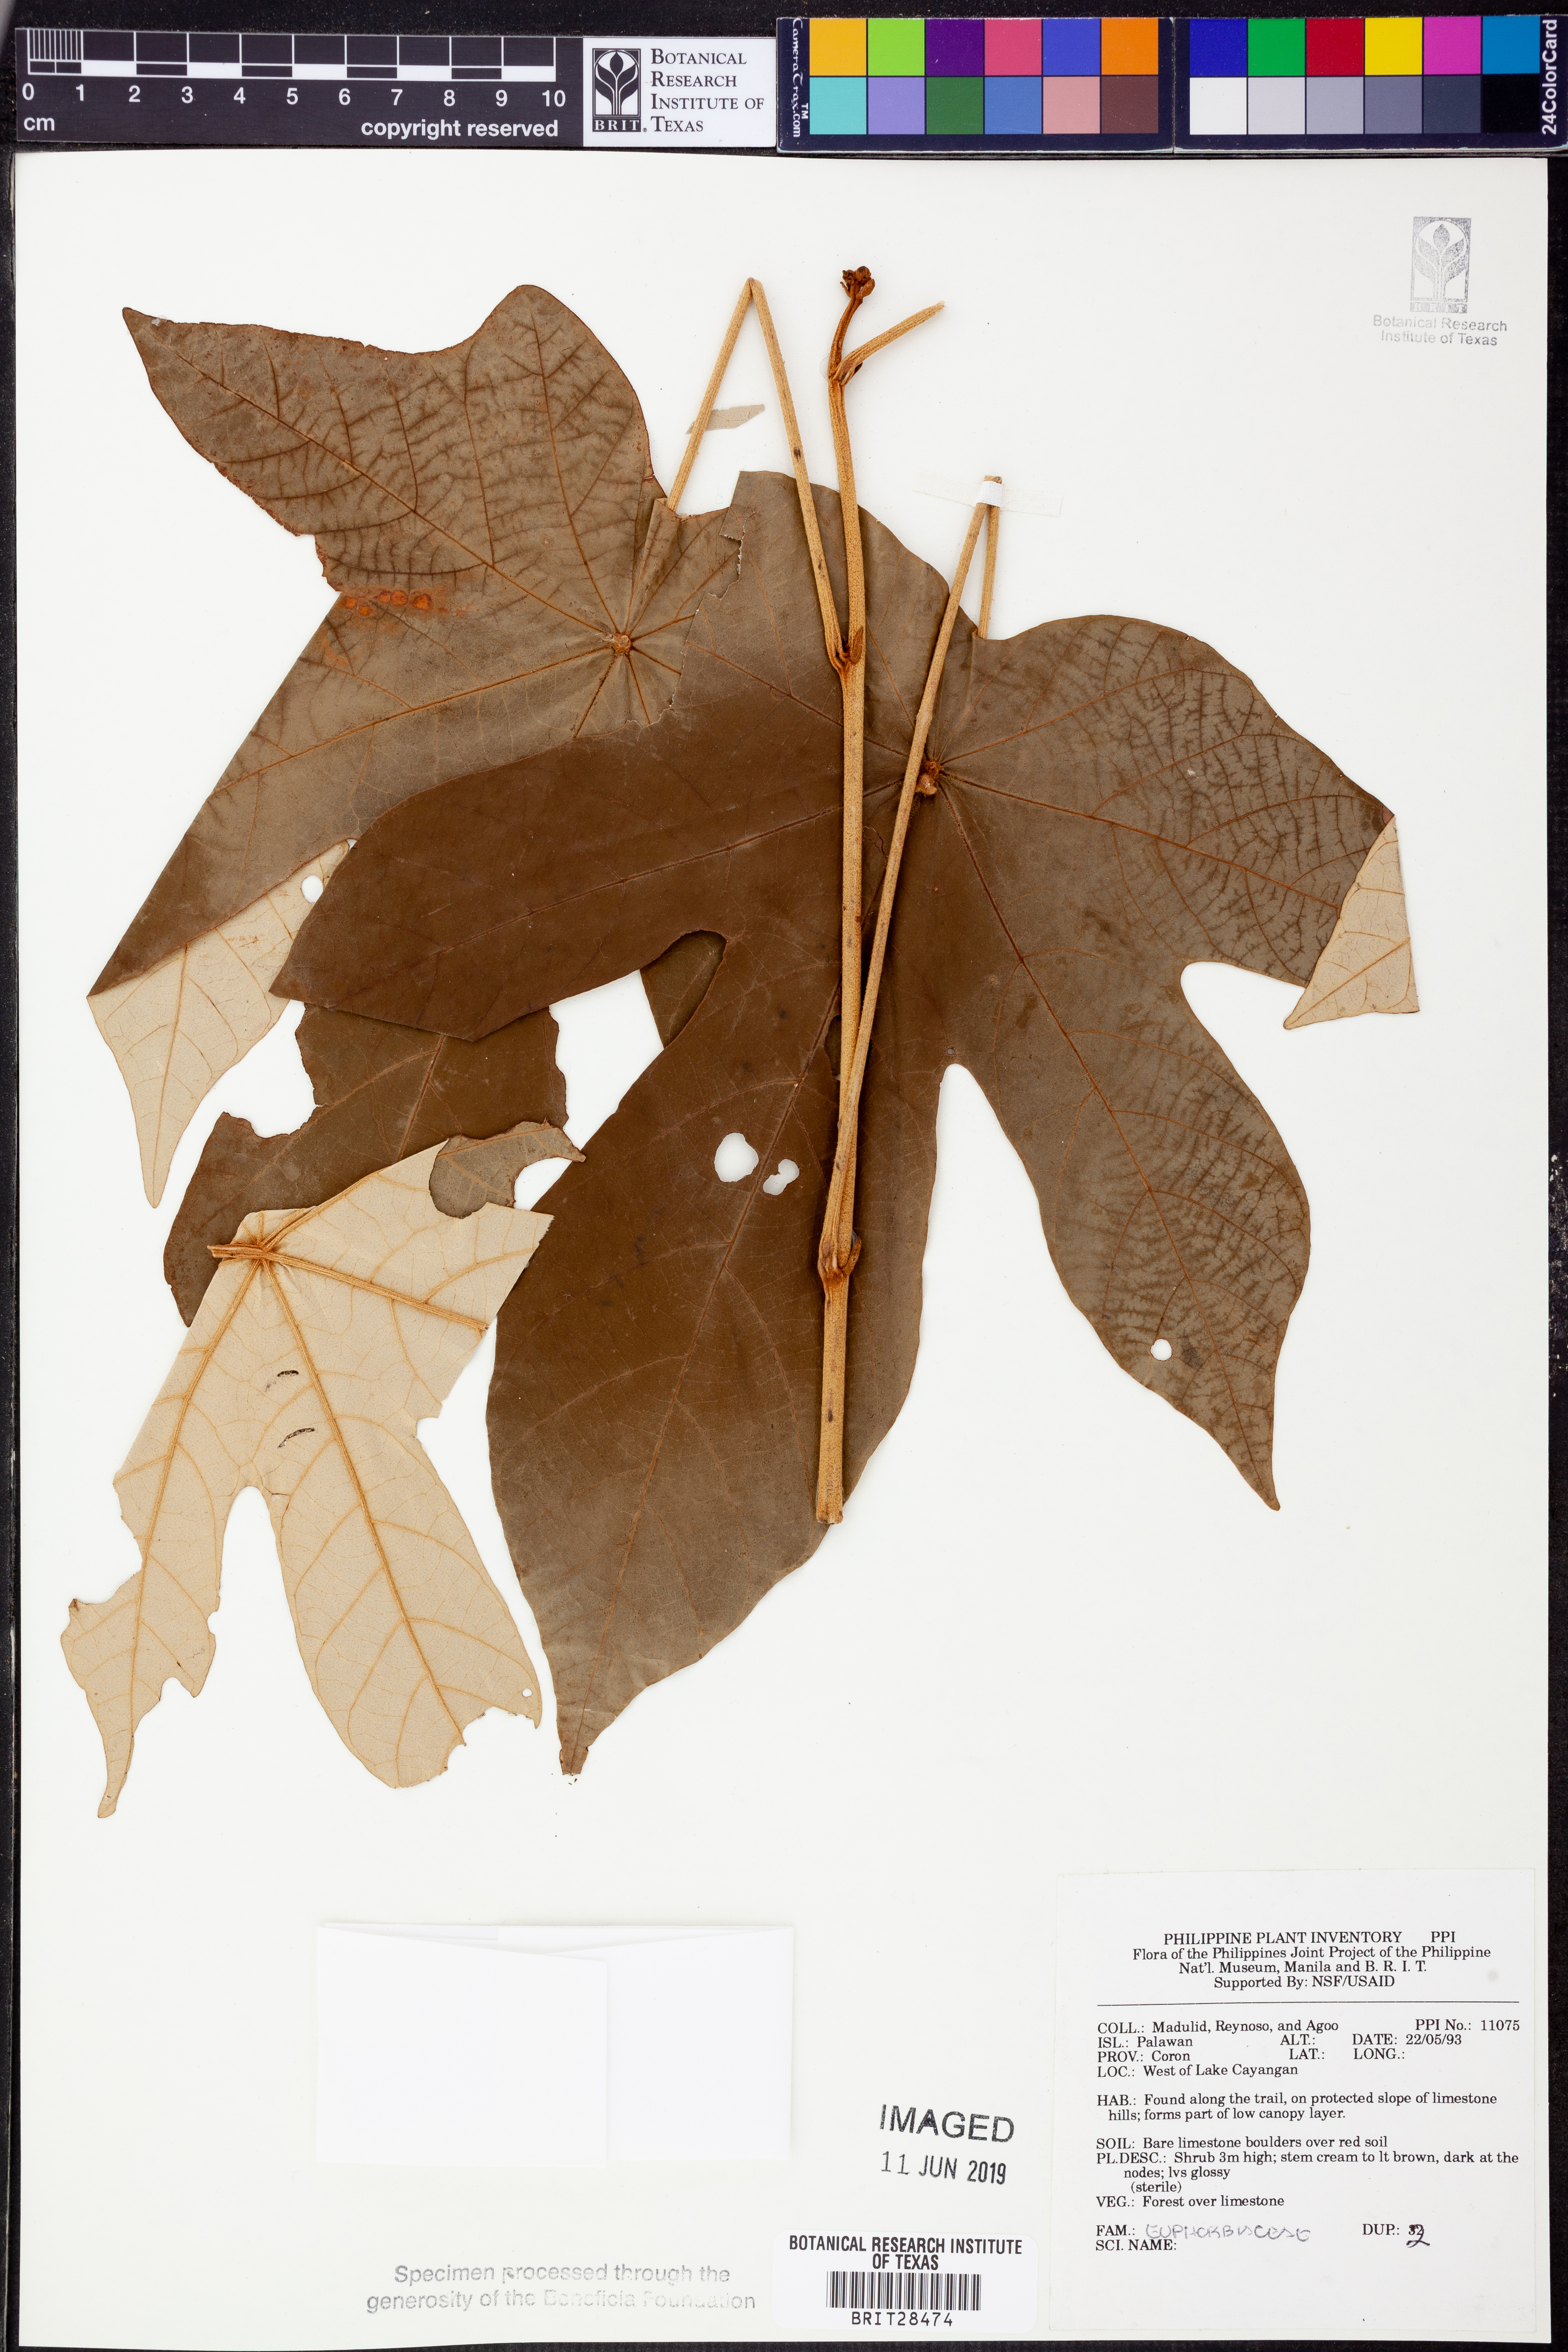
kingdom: Plantae
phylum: Tracheophyta
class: Magnoliopsida
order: Malpighiales
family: Euphorbiaceae
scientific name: Euphorbiaceae
